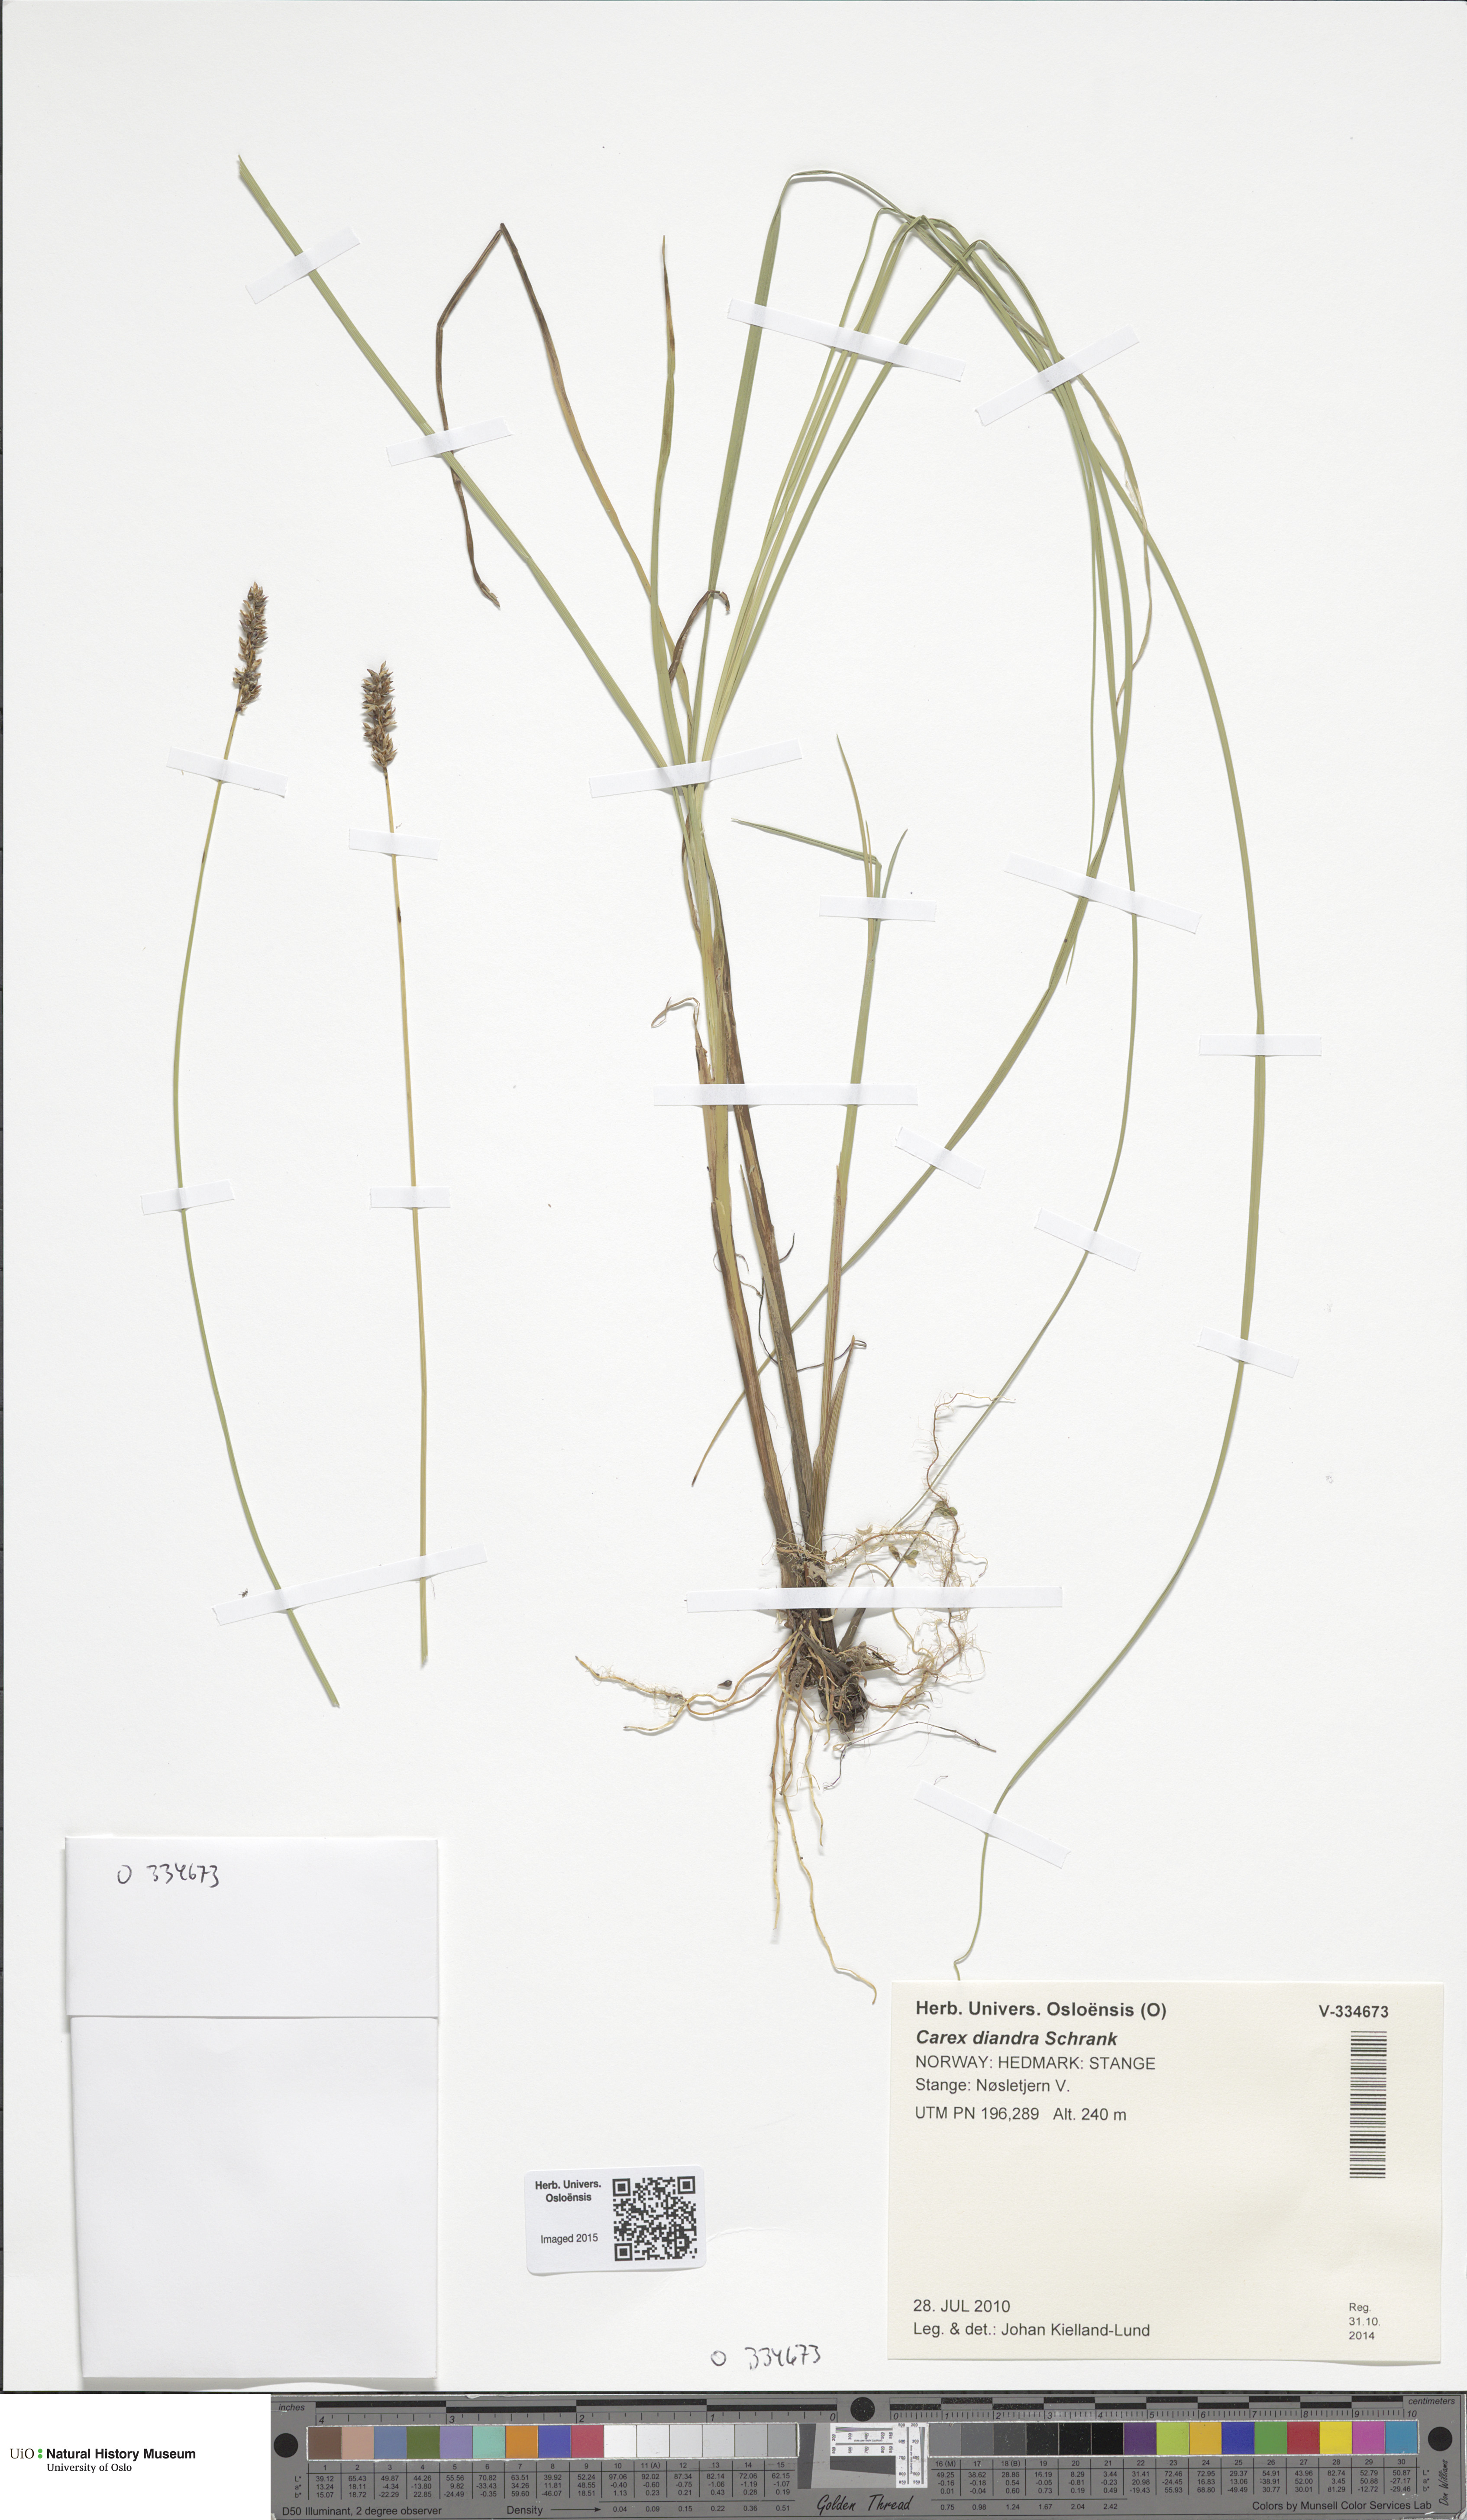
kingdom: Plantae
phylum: Tracheophyta
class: Liliopsida
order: Poales
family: Cyperaceae
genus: Carex
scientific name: Carex diandra
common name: Lesser tussock-sedge
